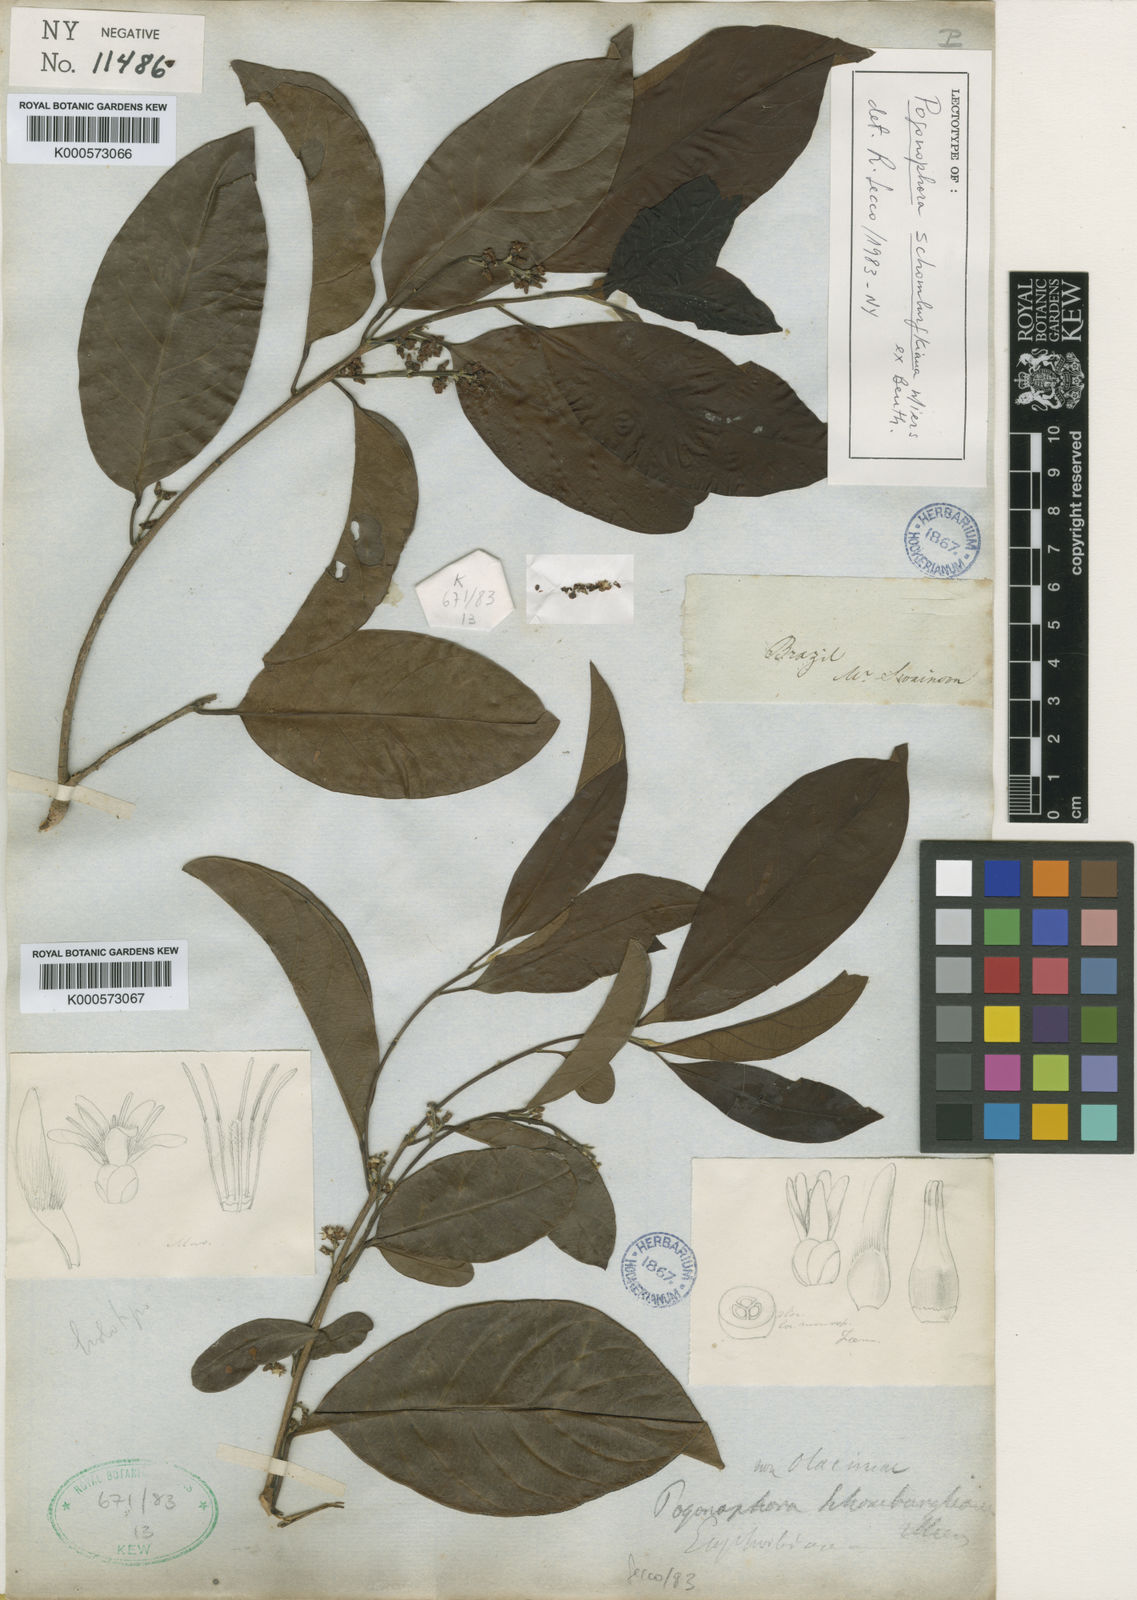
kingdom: Plantae
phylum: Tracheophyta
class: Magnoliopsida
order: Malpighiales
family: Peraceae
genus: Pogonophora
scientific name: Pogonophora schomburgkiana
